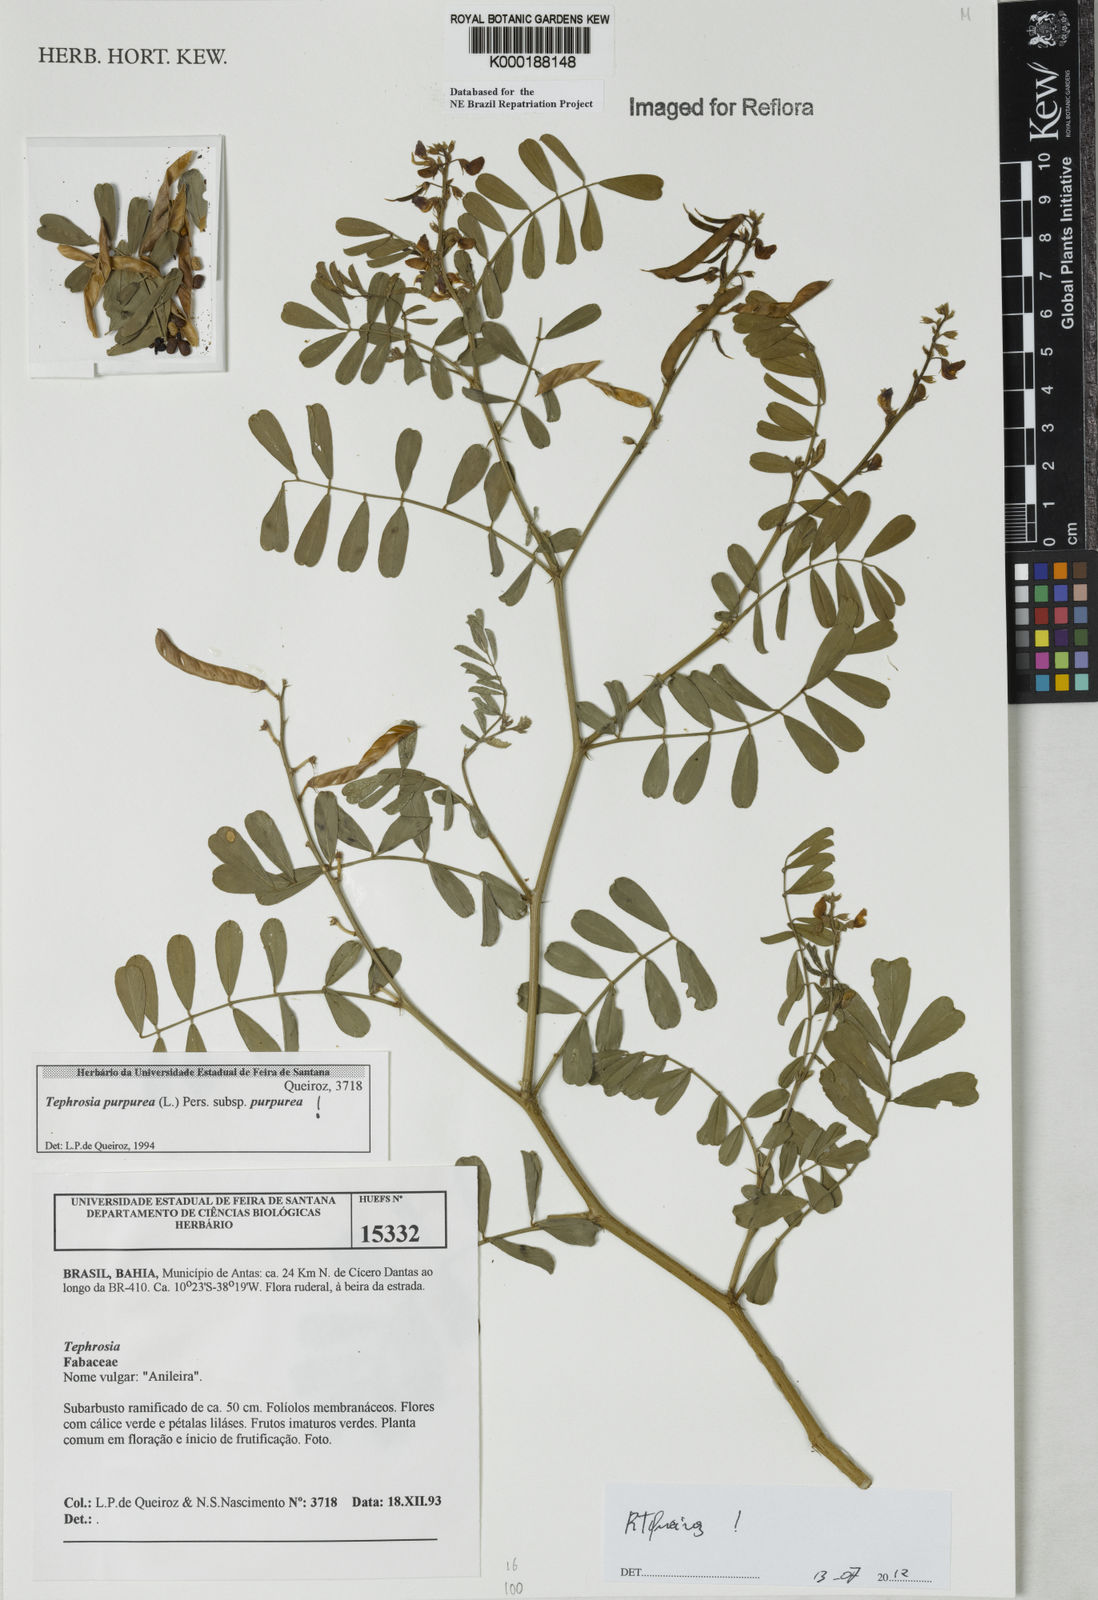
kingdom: Plantae
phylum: Tracheophyta
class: Magnoliopsida
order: Fabales
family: Fabaceae
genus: Tephrosia
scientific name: Tephrosia purpurea
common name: Fishpoison
